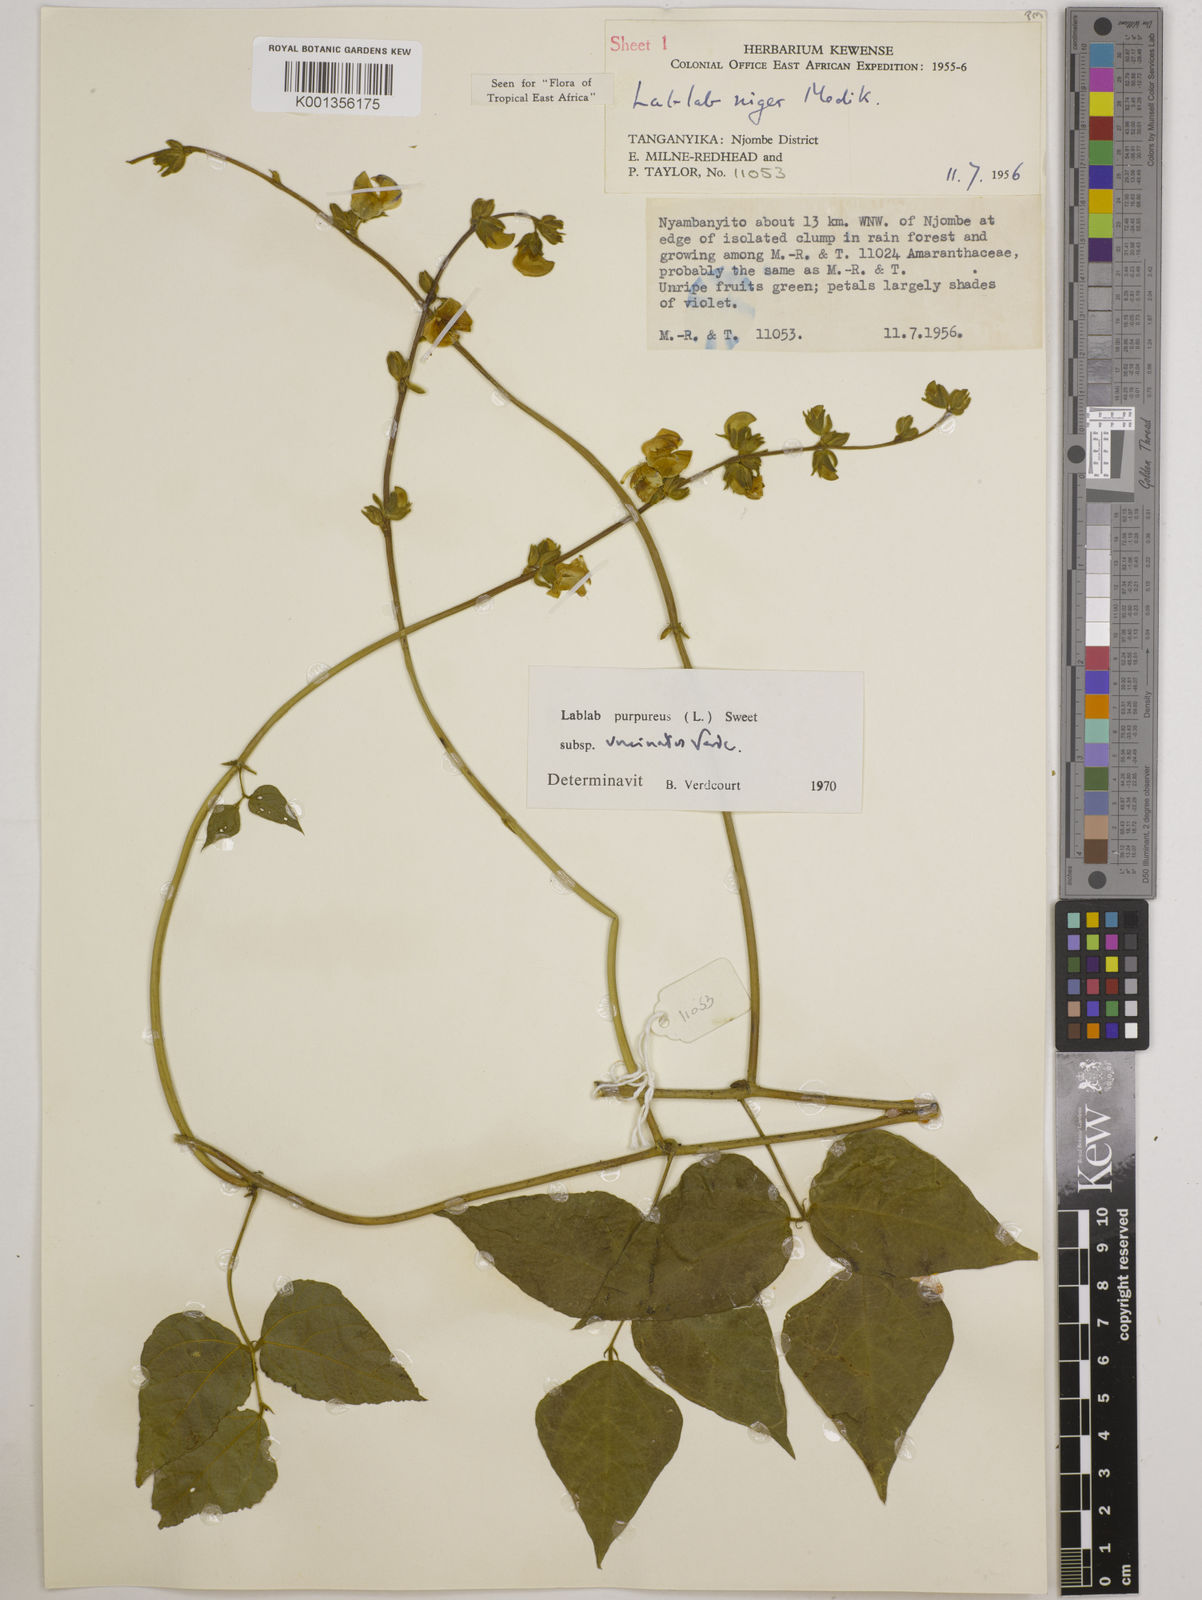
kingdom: Plantae
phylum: Tracheophyta
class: Magnoliopsida
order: Fabales
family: Fabaceae
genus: Lablab
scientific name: Lablab purpureus
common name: Lablab-bean
